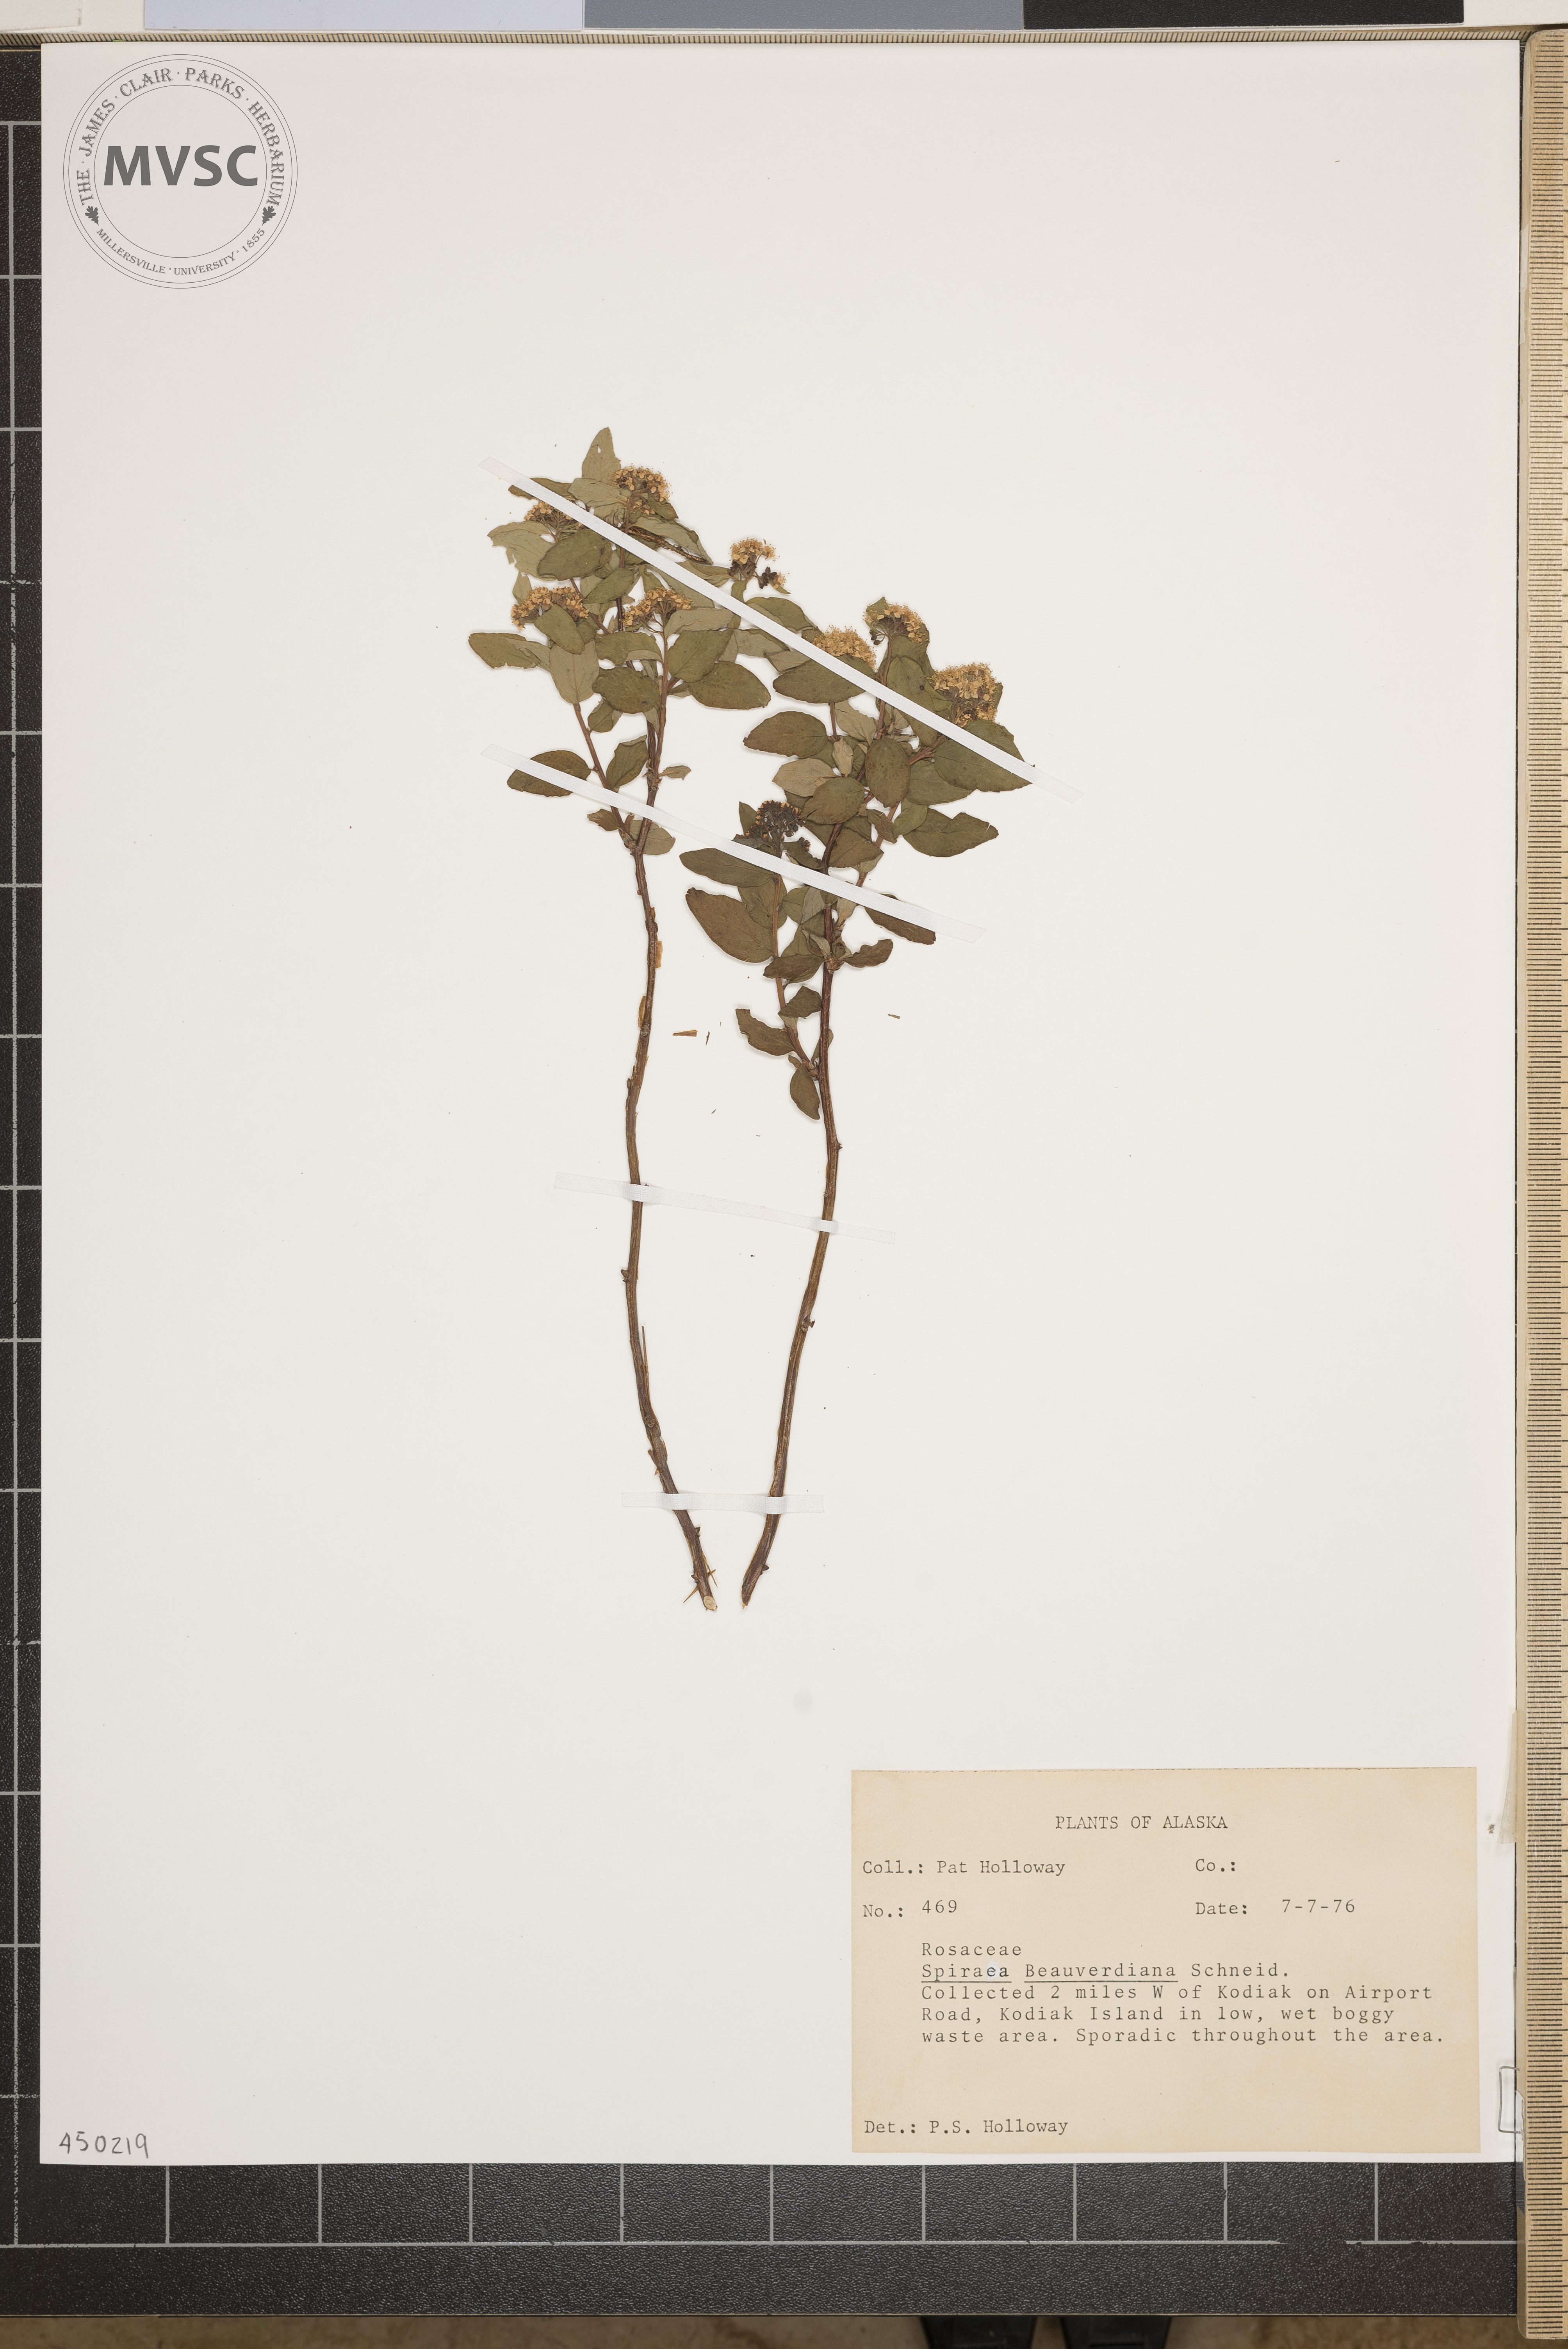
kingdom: Plantae
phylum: Tracheophyta
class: Magnoliopsida
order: Rosales
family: Rosaceae
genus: Spiraea
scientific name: Spiraea betulifolia
